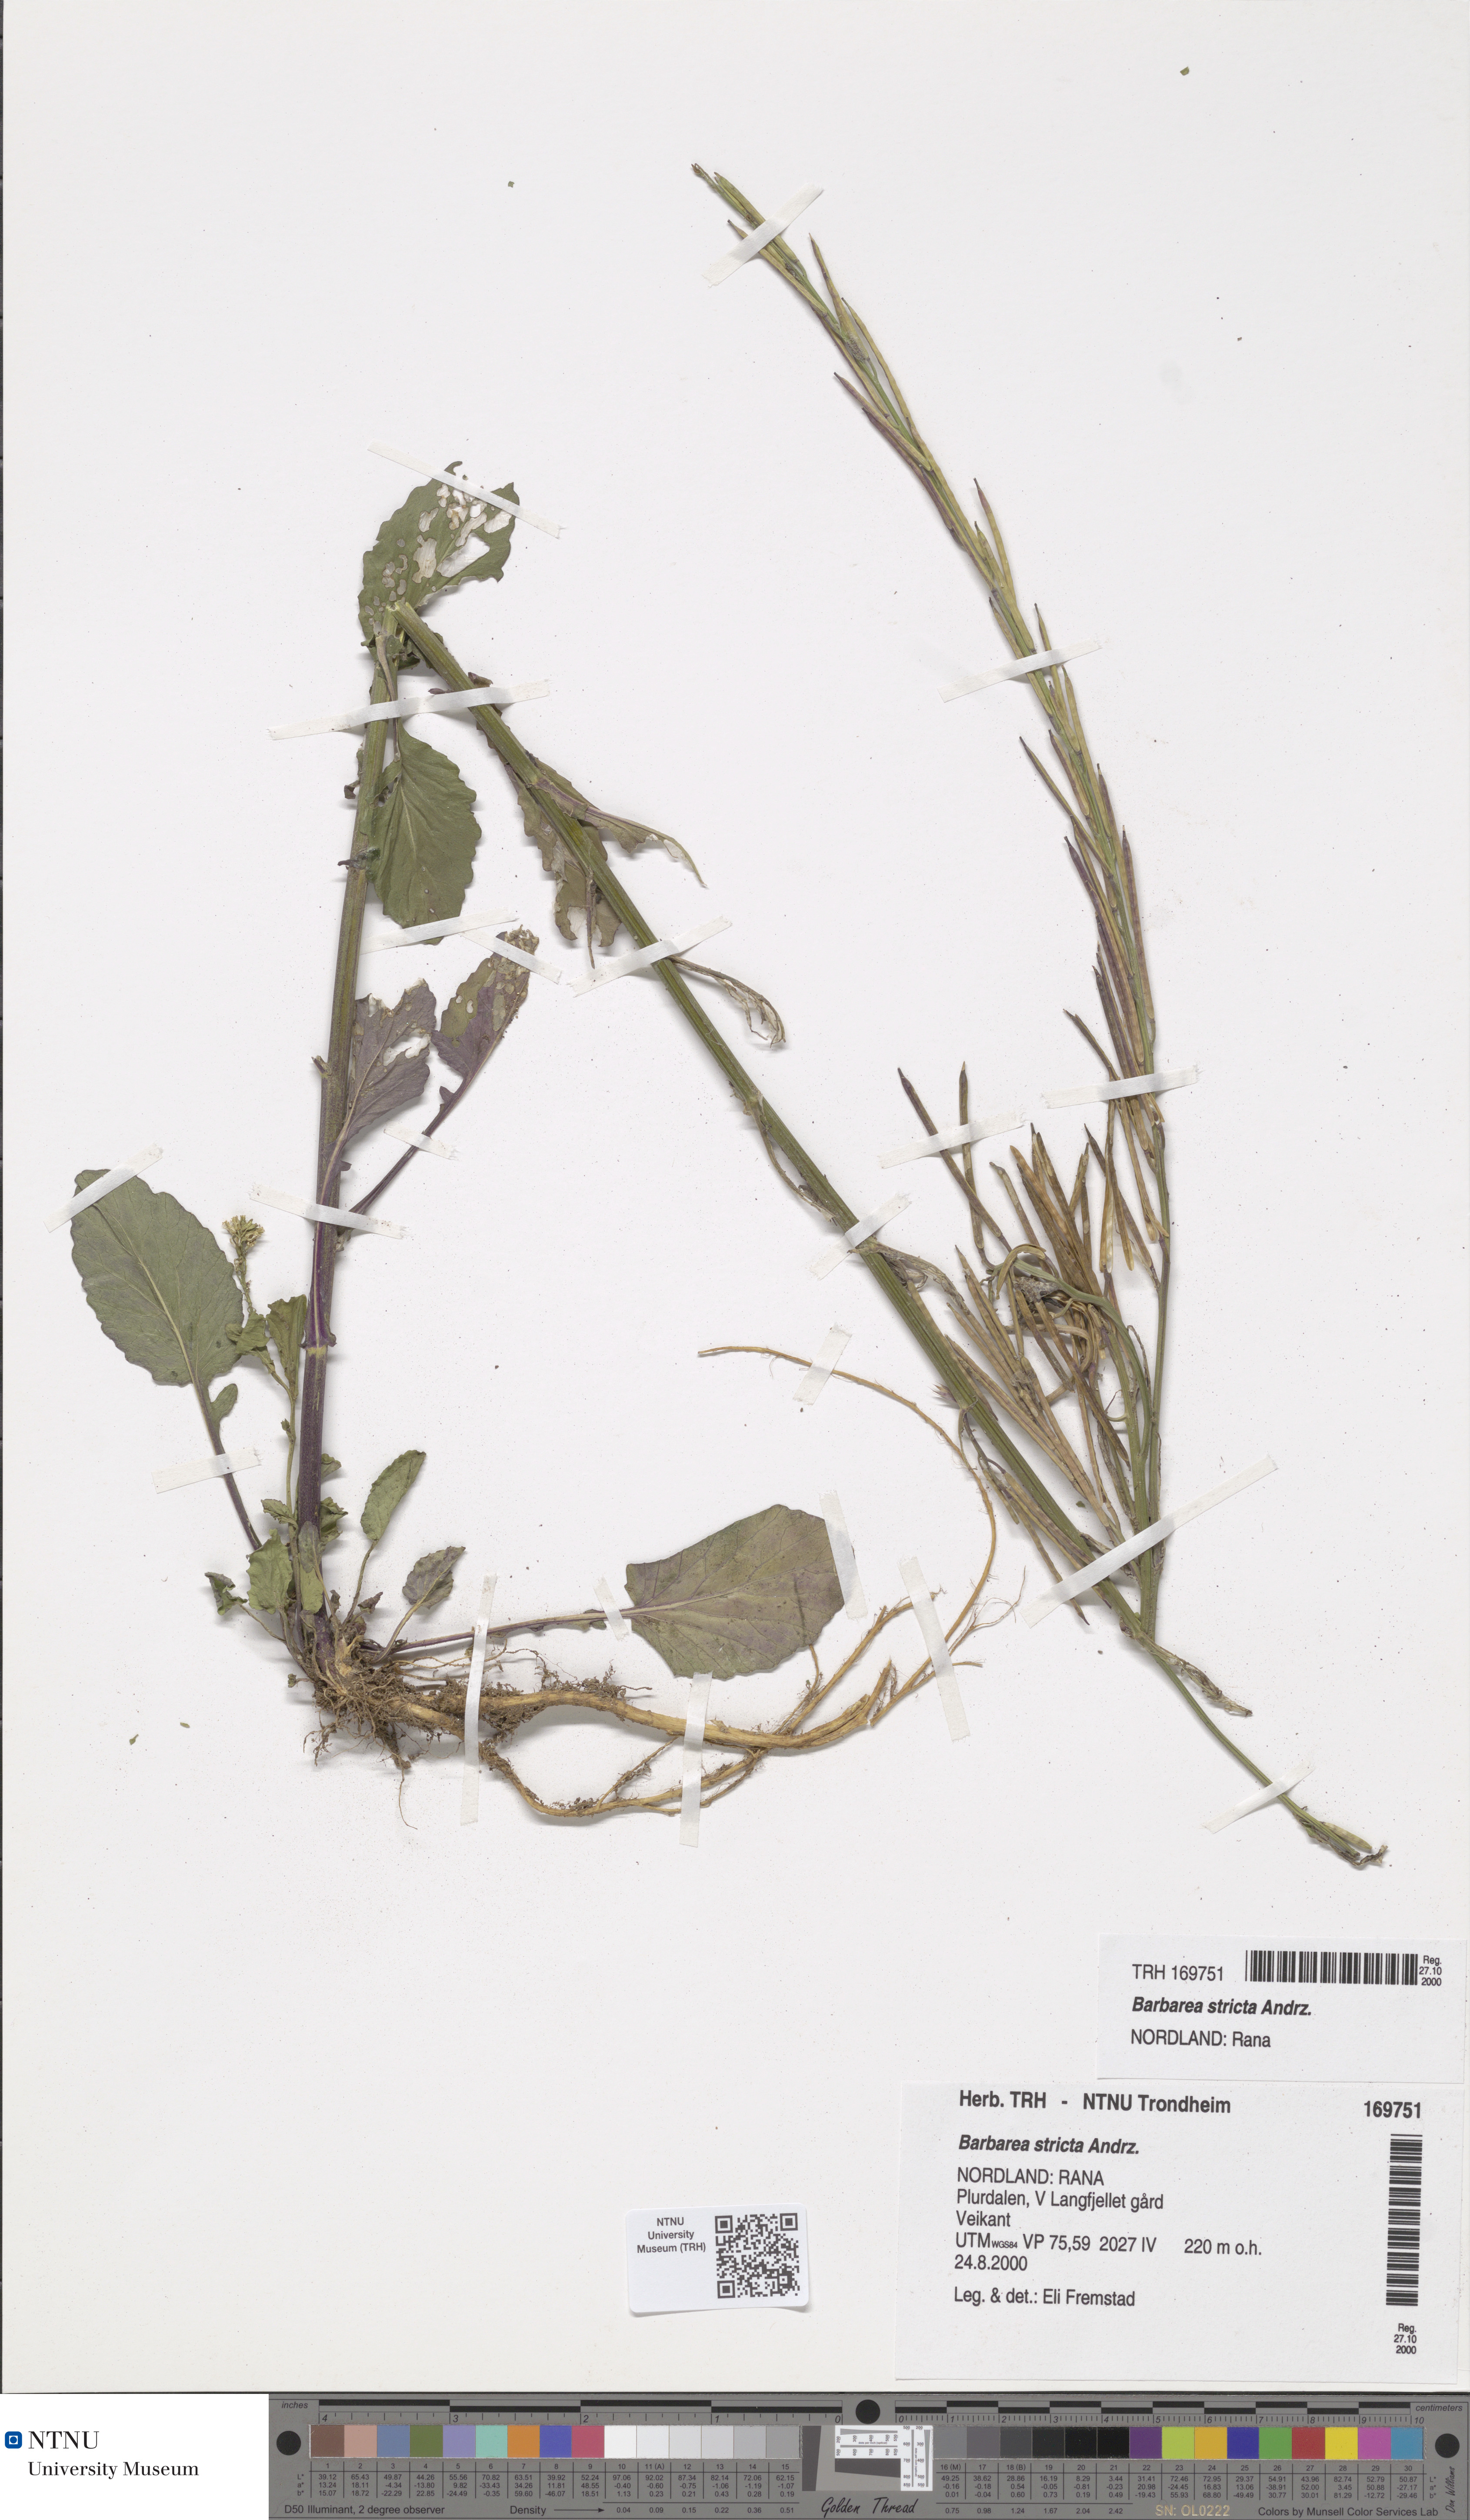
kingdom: Plantae
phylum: Tracheophyta
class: Magnoliopsida
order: Brassicales
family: Brassicaceae
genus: Barbarea
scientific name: Barbarea stricta
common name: Small-flowered winter-cress
